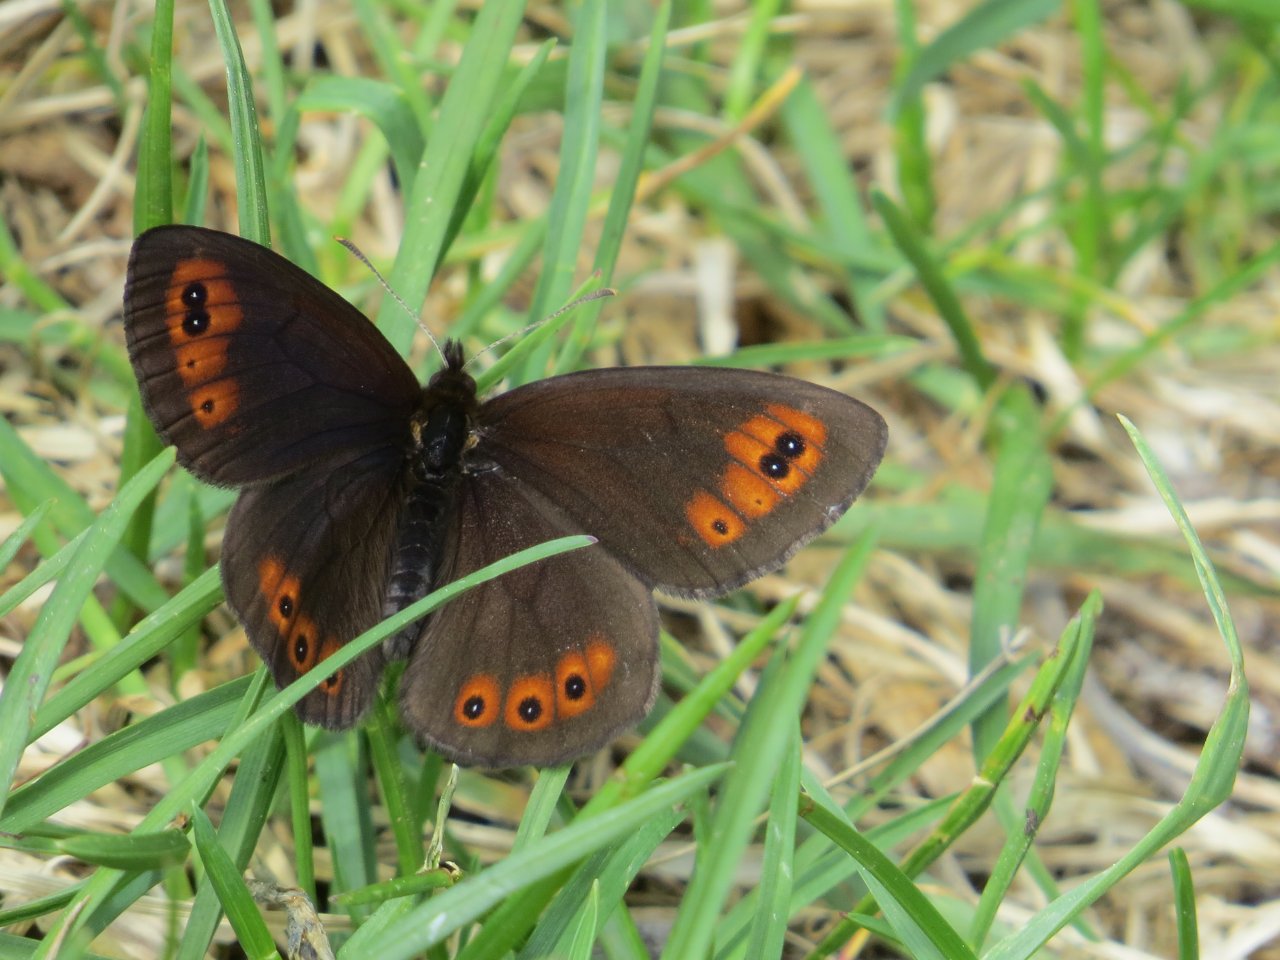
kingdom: Animalia
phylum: Arthropoda
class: Insecta
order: Lepidoptera
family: Nymphalidae
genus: Erebia
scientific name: Erebia epipsodea
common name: Common Alpine
